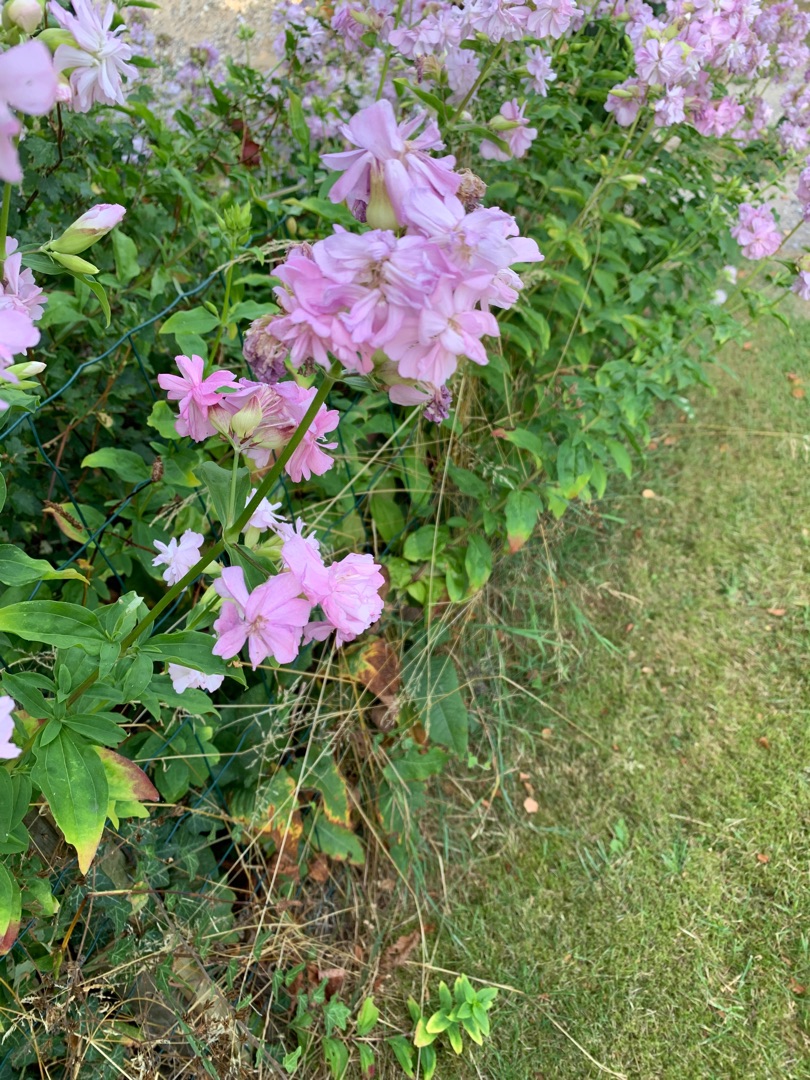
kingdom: Plantae
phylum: Tracheophyta
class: Magnoliopsida
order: Caryophyllales
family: Caryophyllaceae
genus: Saponaria
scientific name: Saponaria officinalis
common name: Sæbeurt
